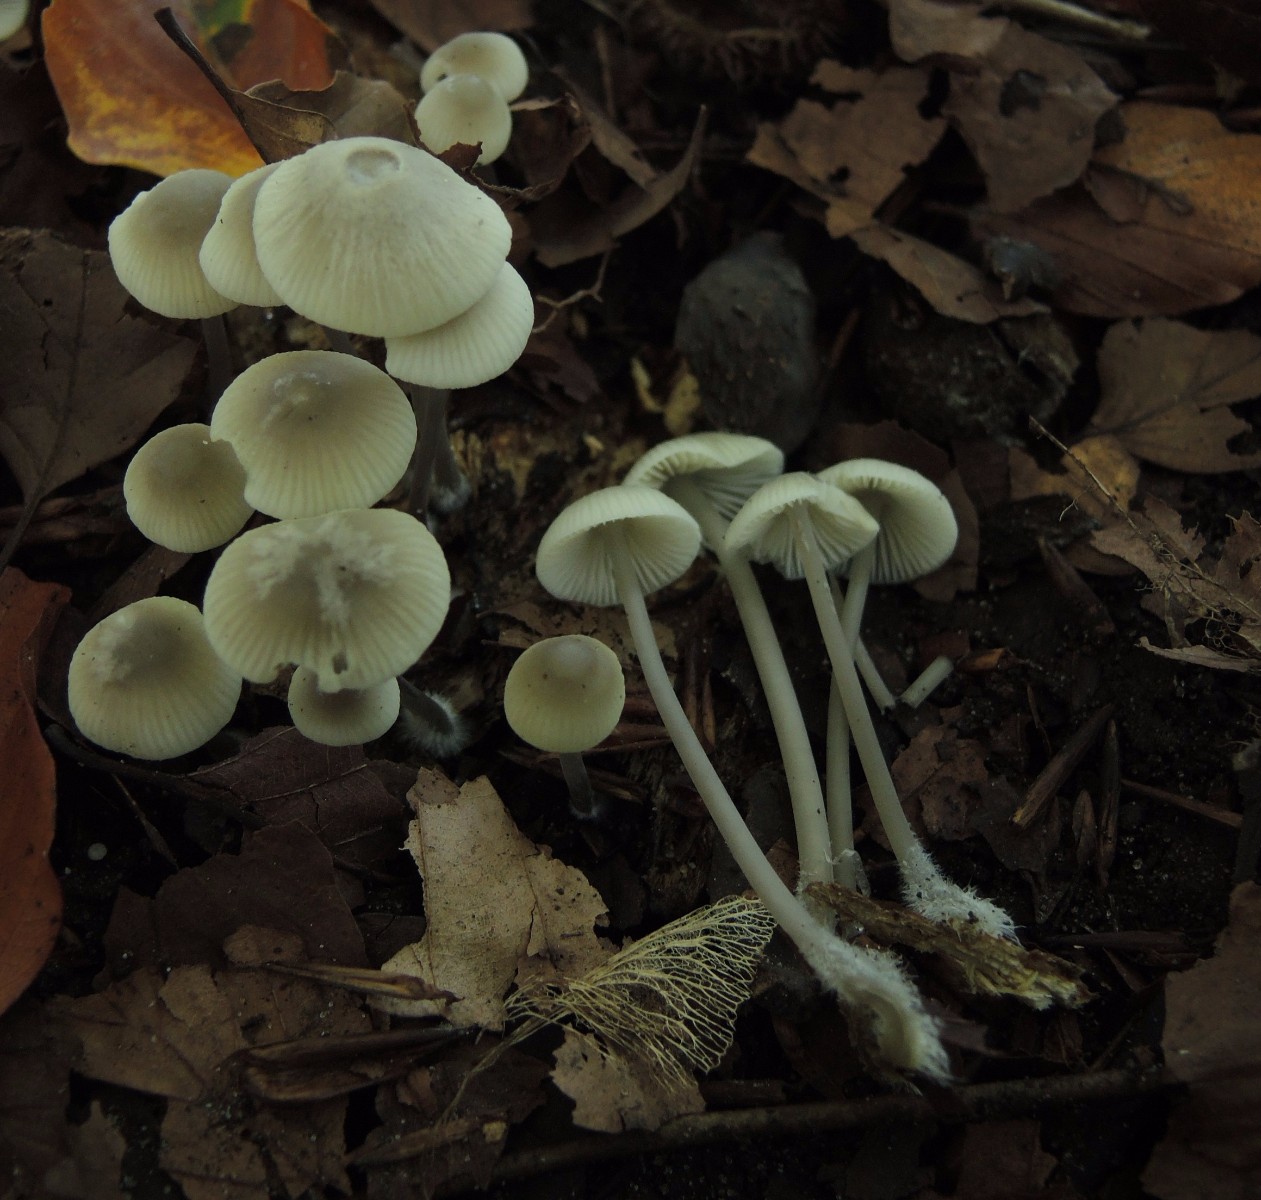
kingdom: Fungi
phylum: Basidiomycota
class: Agaricomycetes
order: Agaricales
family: Mycenaceae
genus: Mycena
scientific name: Mycena arcangeliana
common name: oliven-huesvamp
